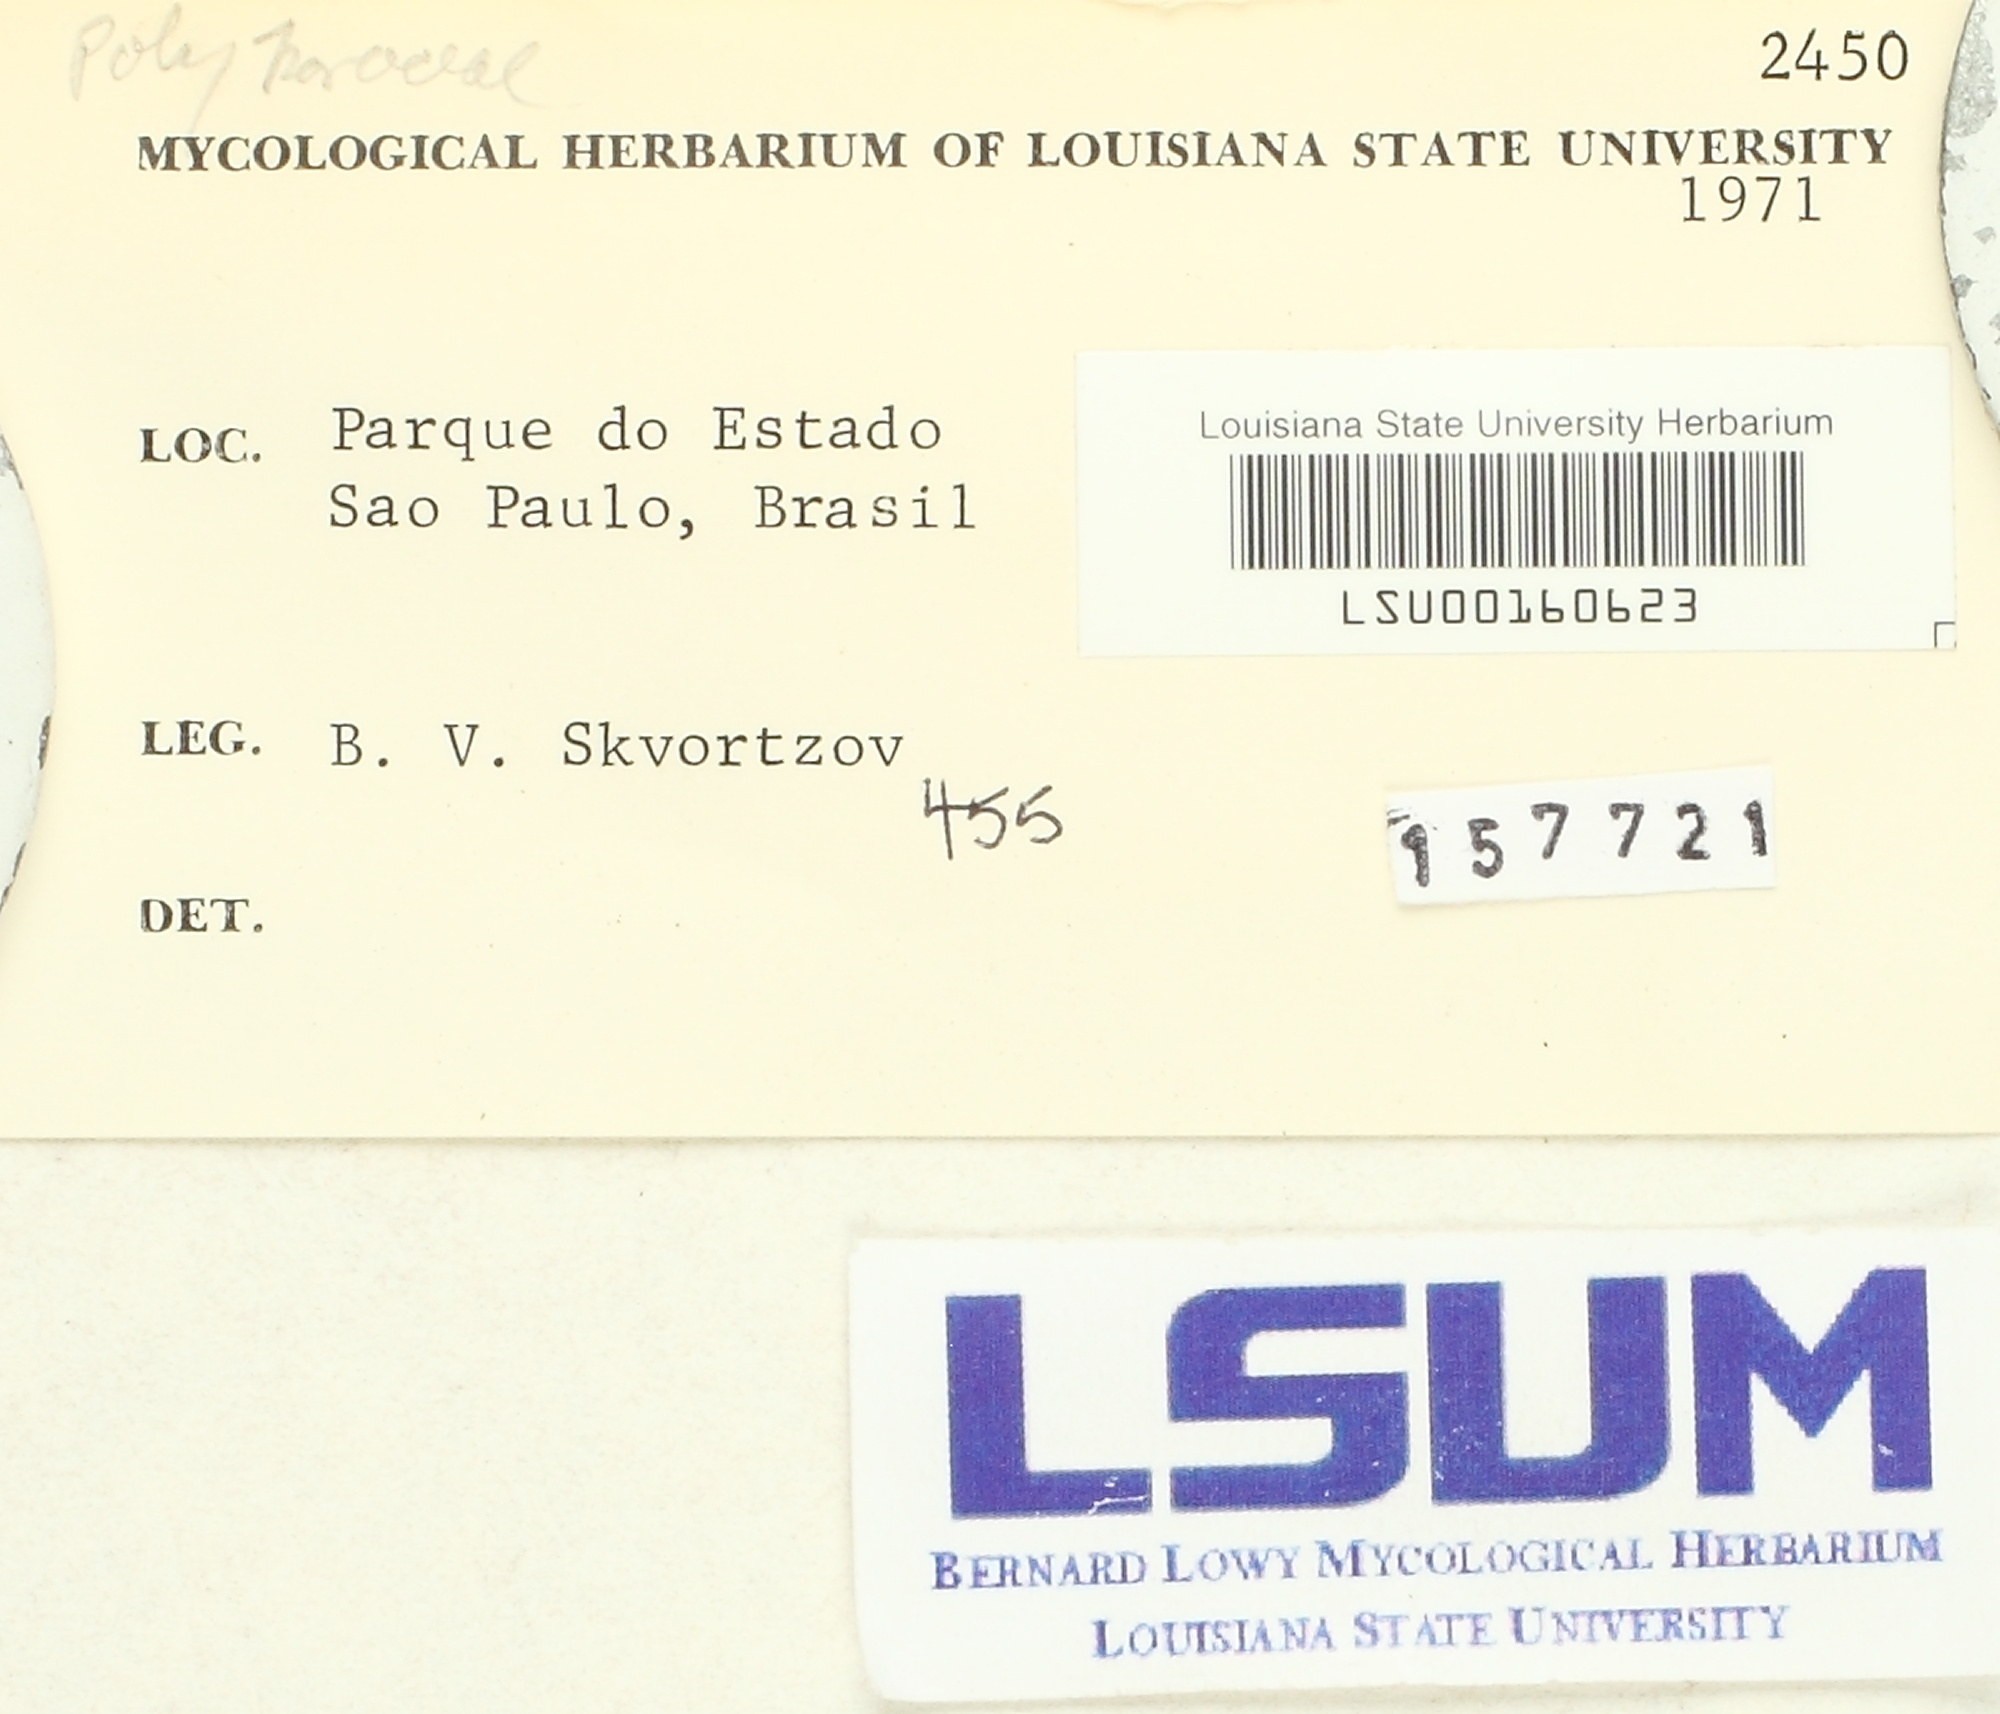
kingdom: Fungi
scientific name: Fungi
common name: Fungi
